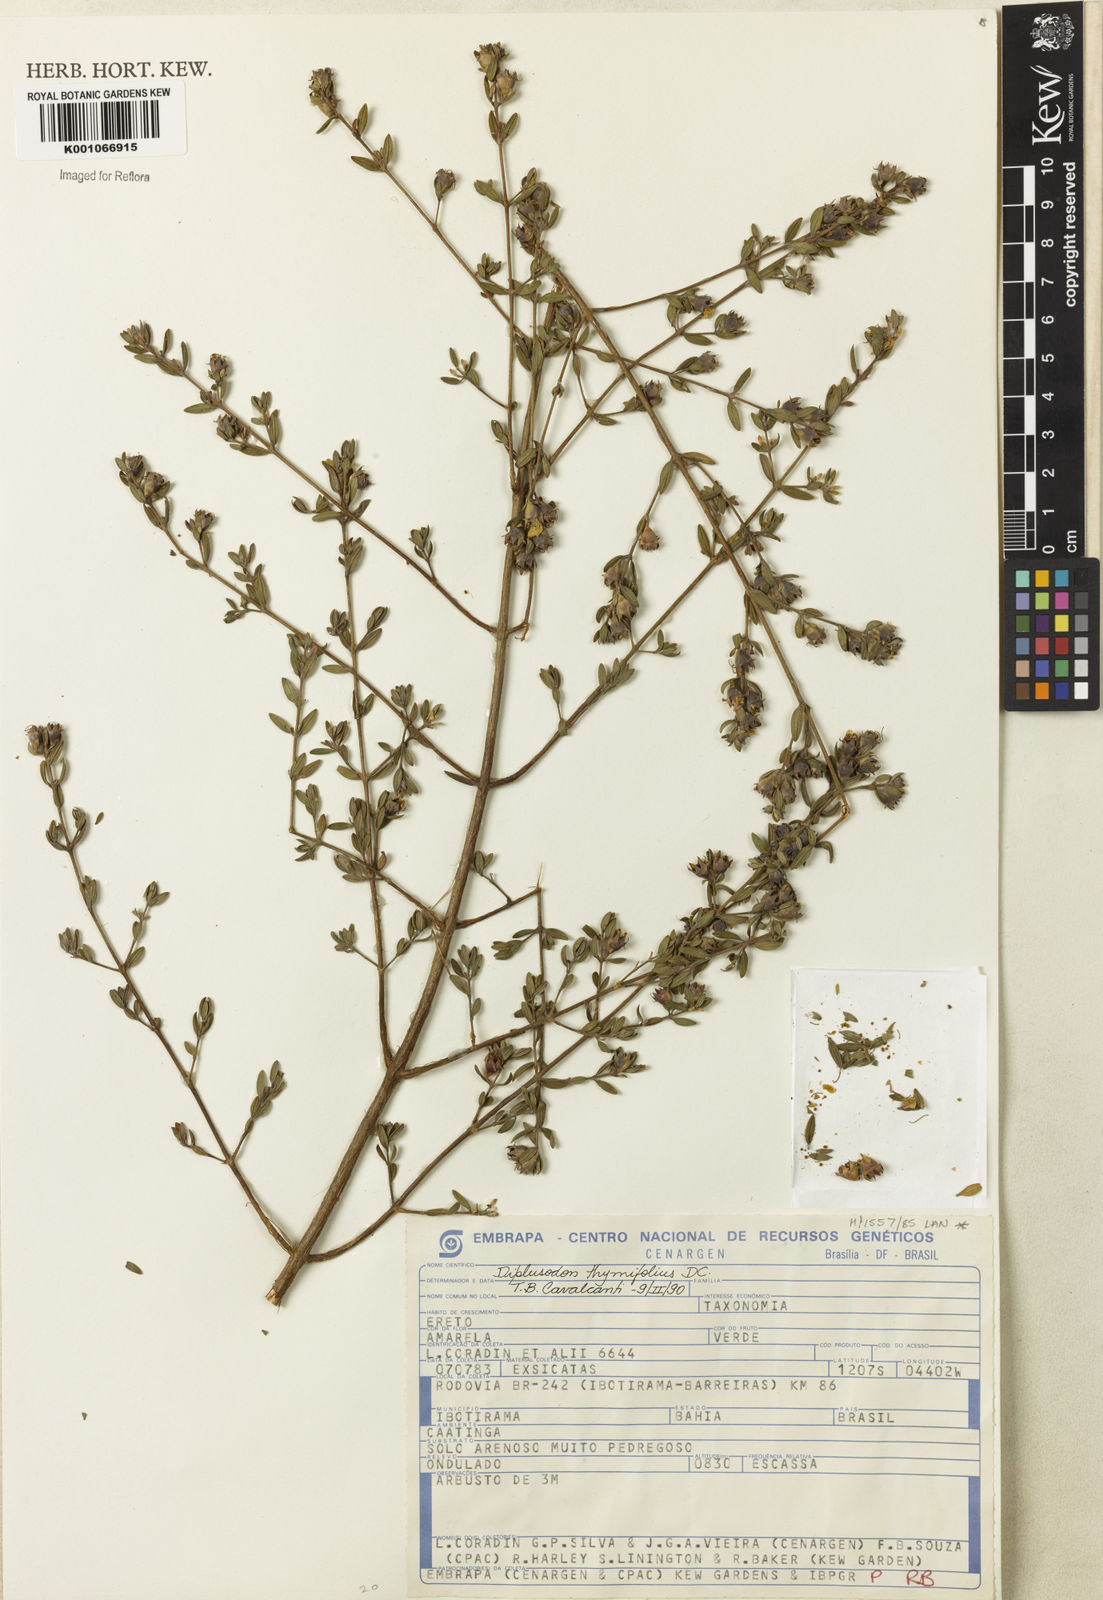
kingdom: Plantae
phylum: Tracheophyta
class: Magnoliopsida
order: Myrtales
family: Lythraceae
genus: Diplusodon
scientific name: Diplusodon thymifolius
